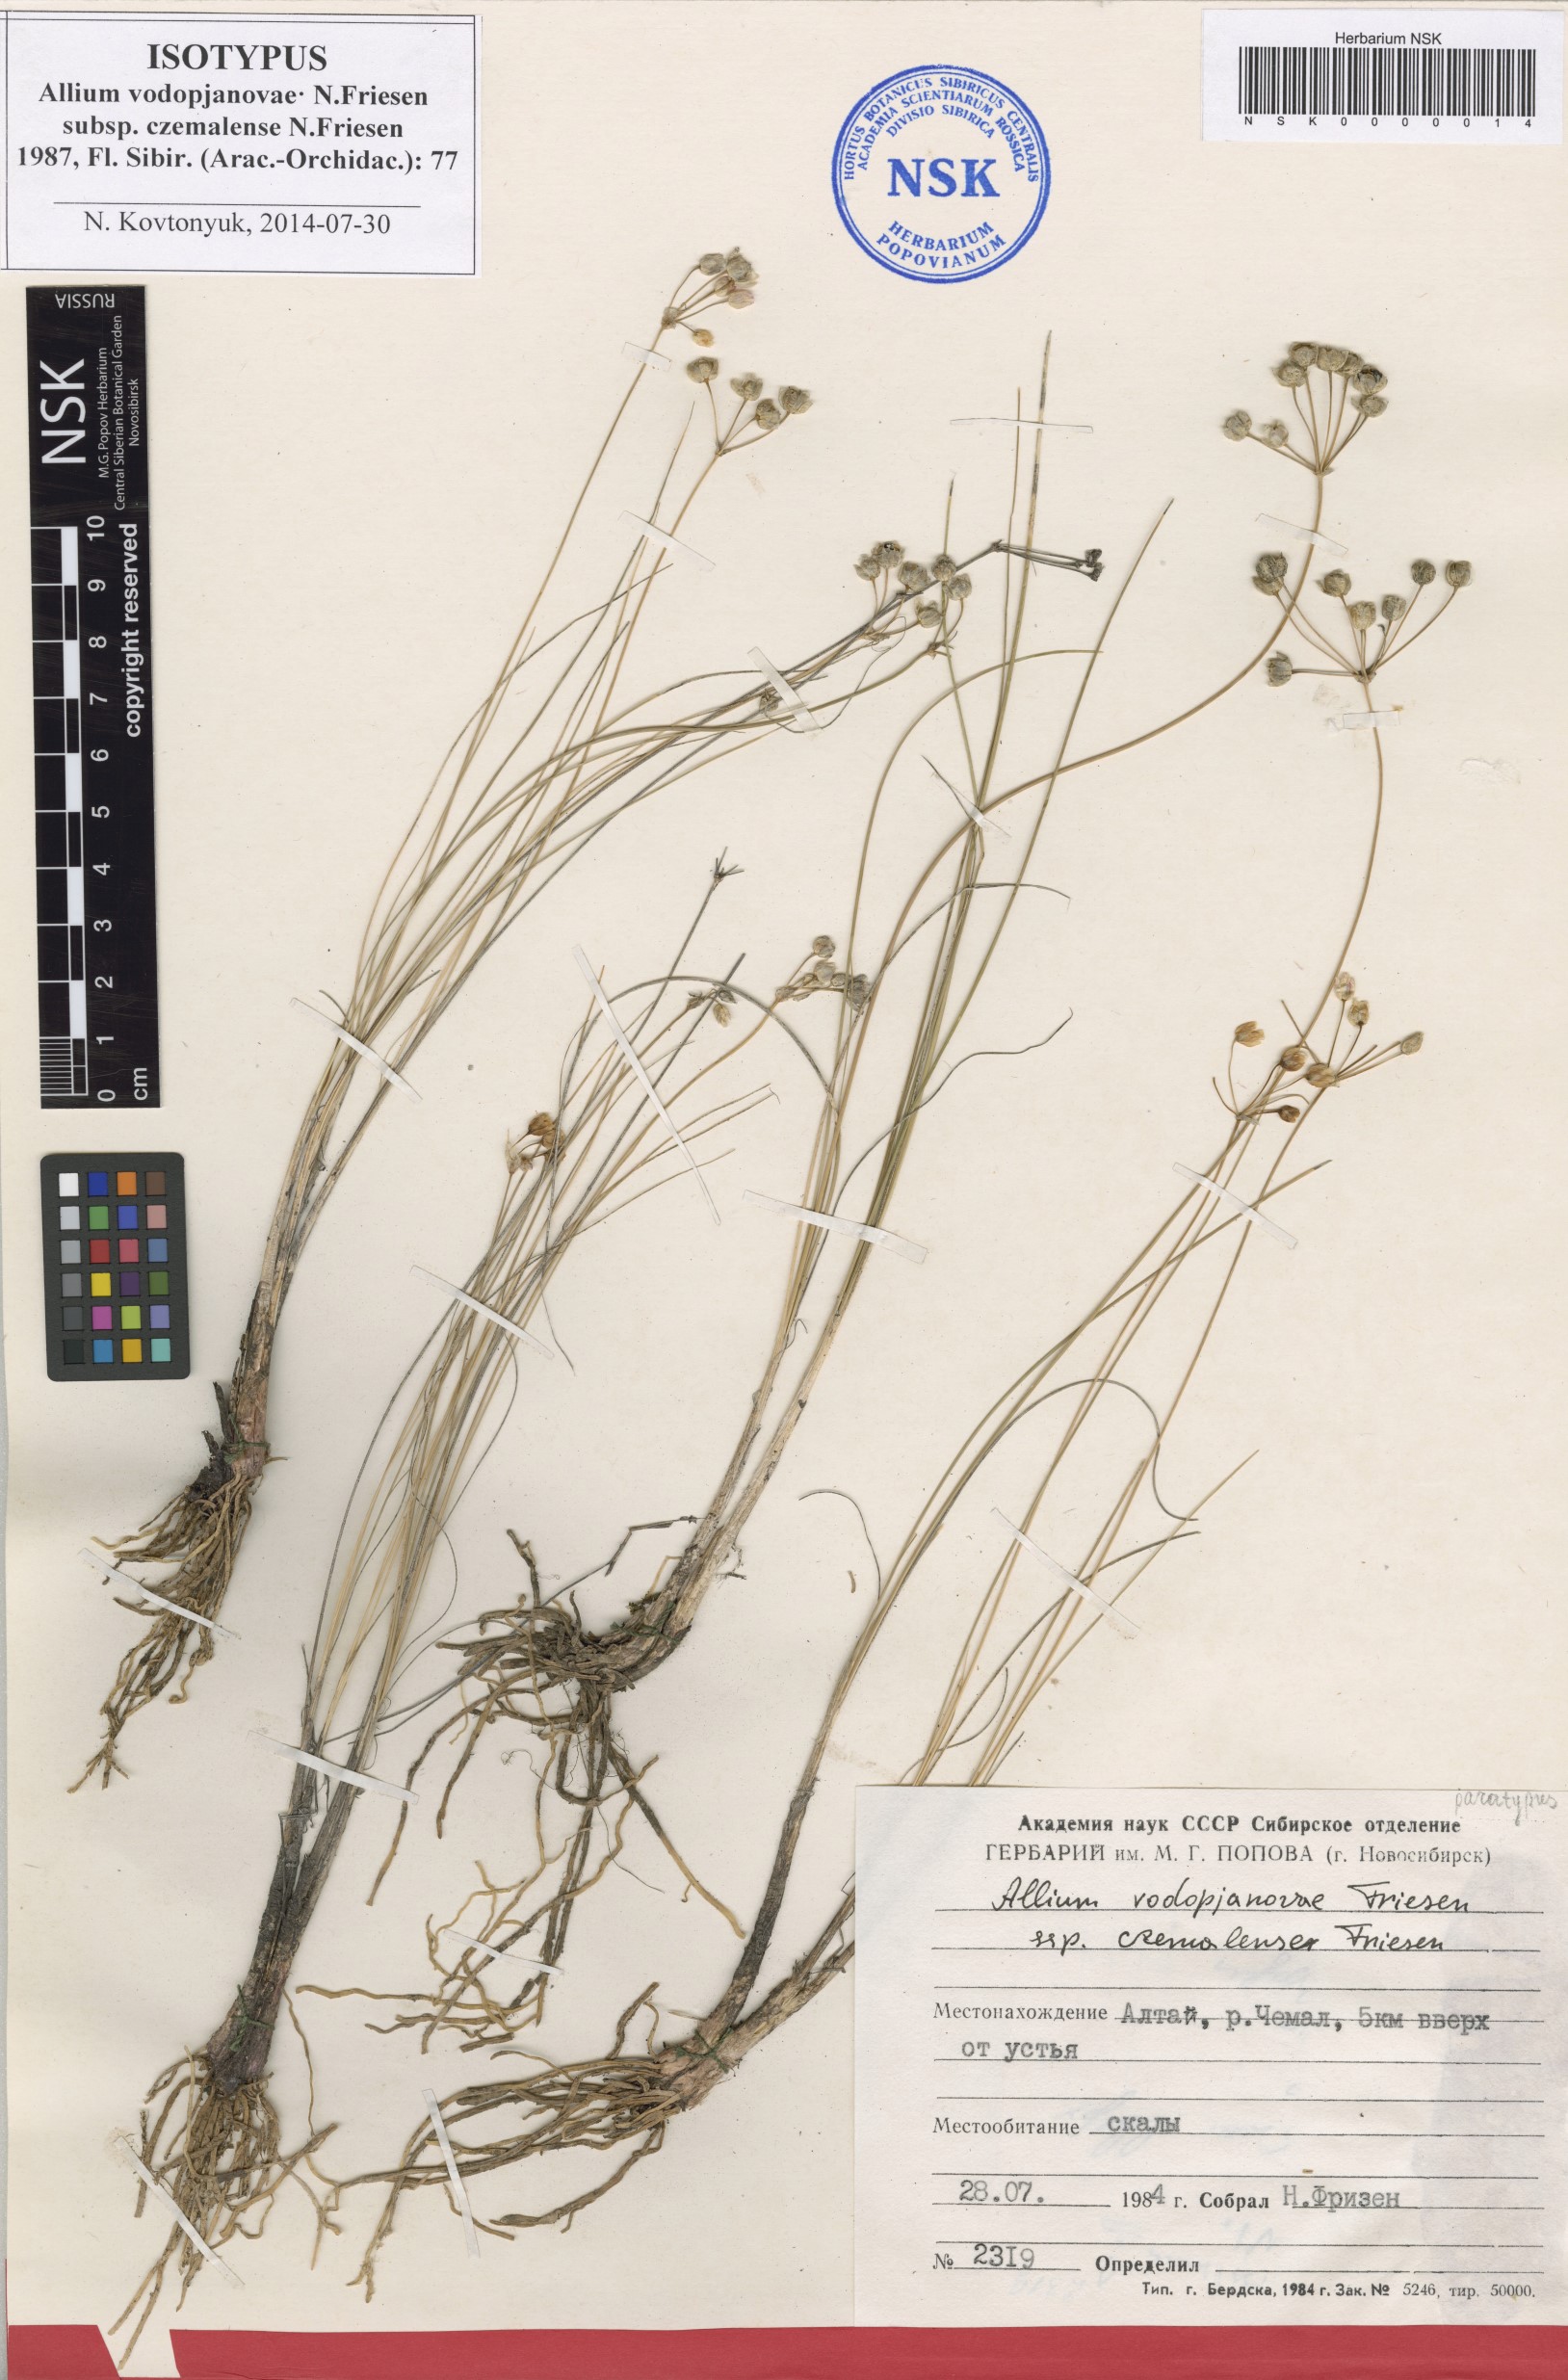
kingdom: Plantae
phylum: Tracheophyta
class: Liliopsida
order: Asparagales
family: Amaryllidaceae
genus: Allium
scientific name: Allium vodopjanovae
